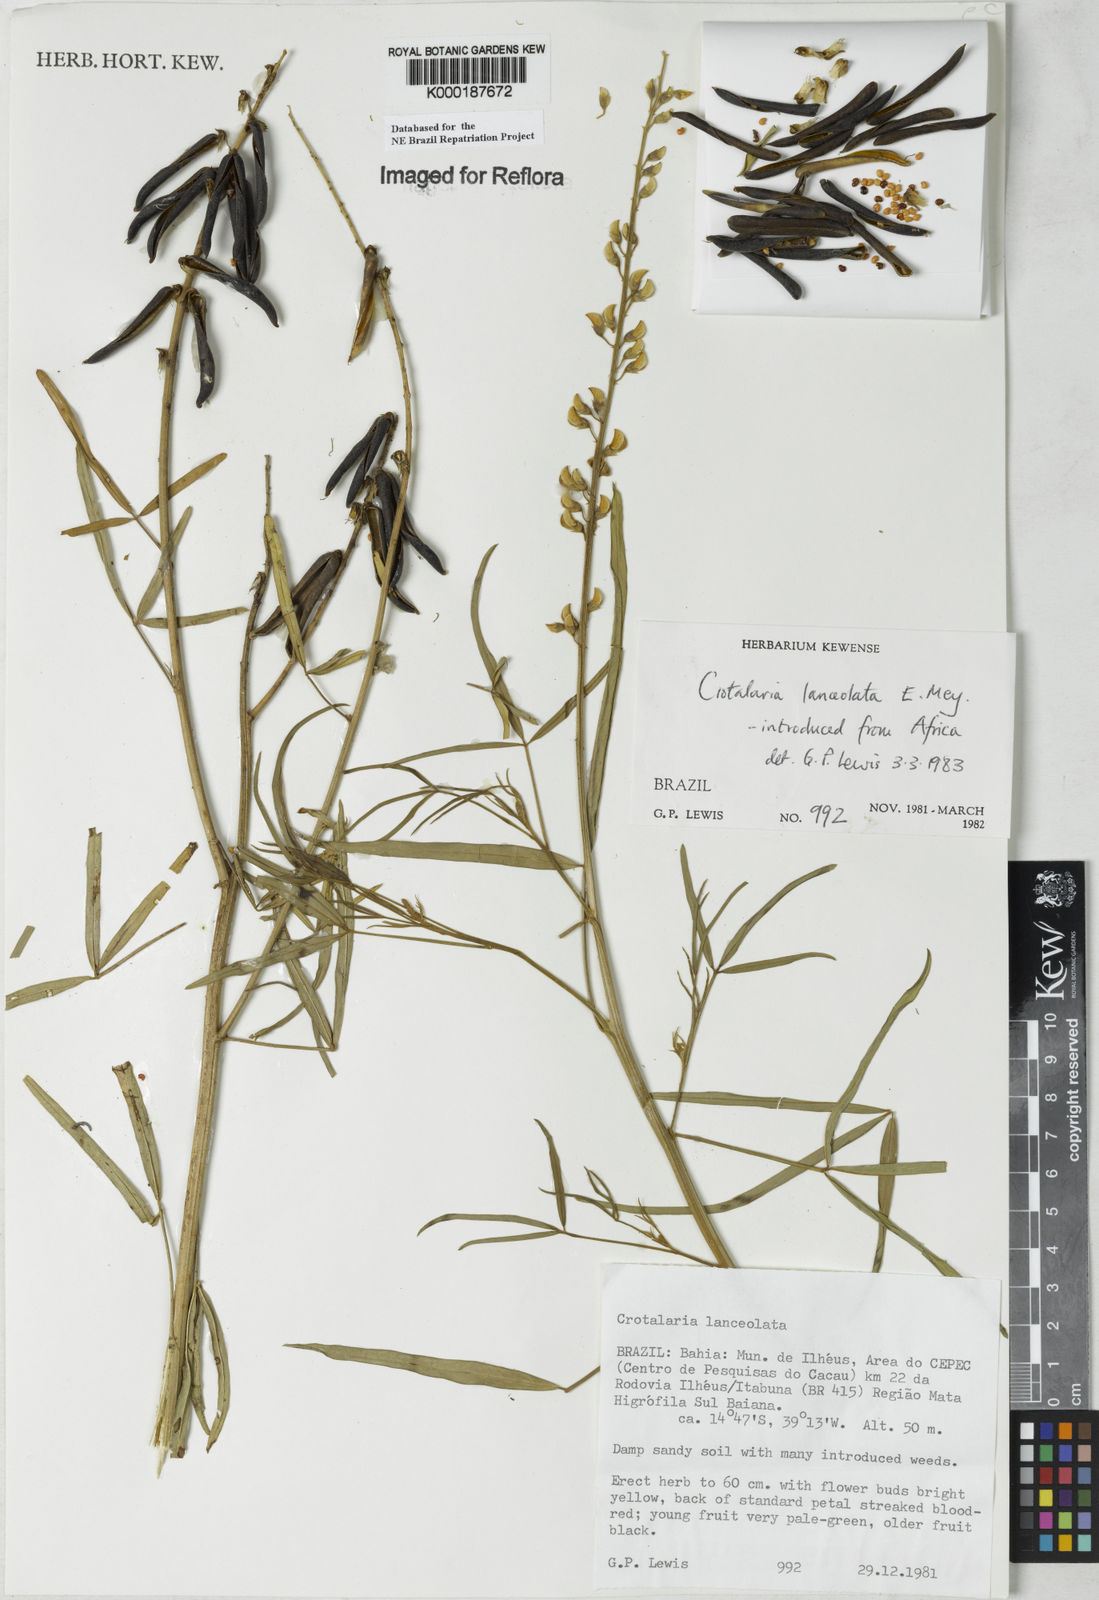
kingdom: Plantae
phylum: Tracheophyta
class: Magnoliopsida
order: Fabales
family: Fabaceae
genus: Crotalaria
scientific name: Crotalaria lanceolata
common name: Lanceleaf rattlebox
